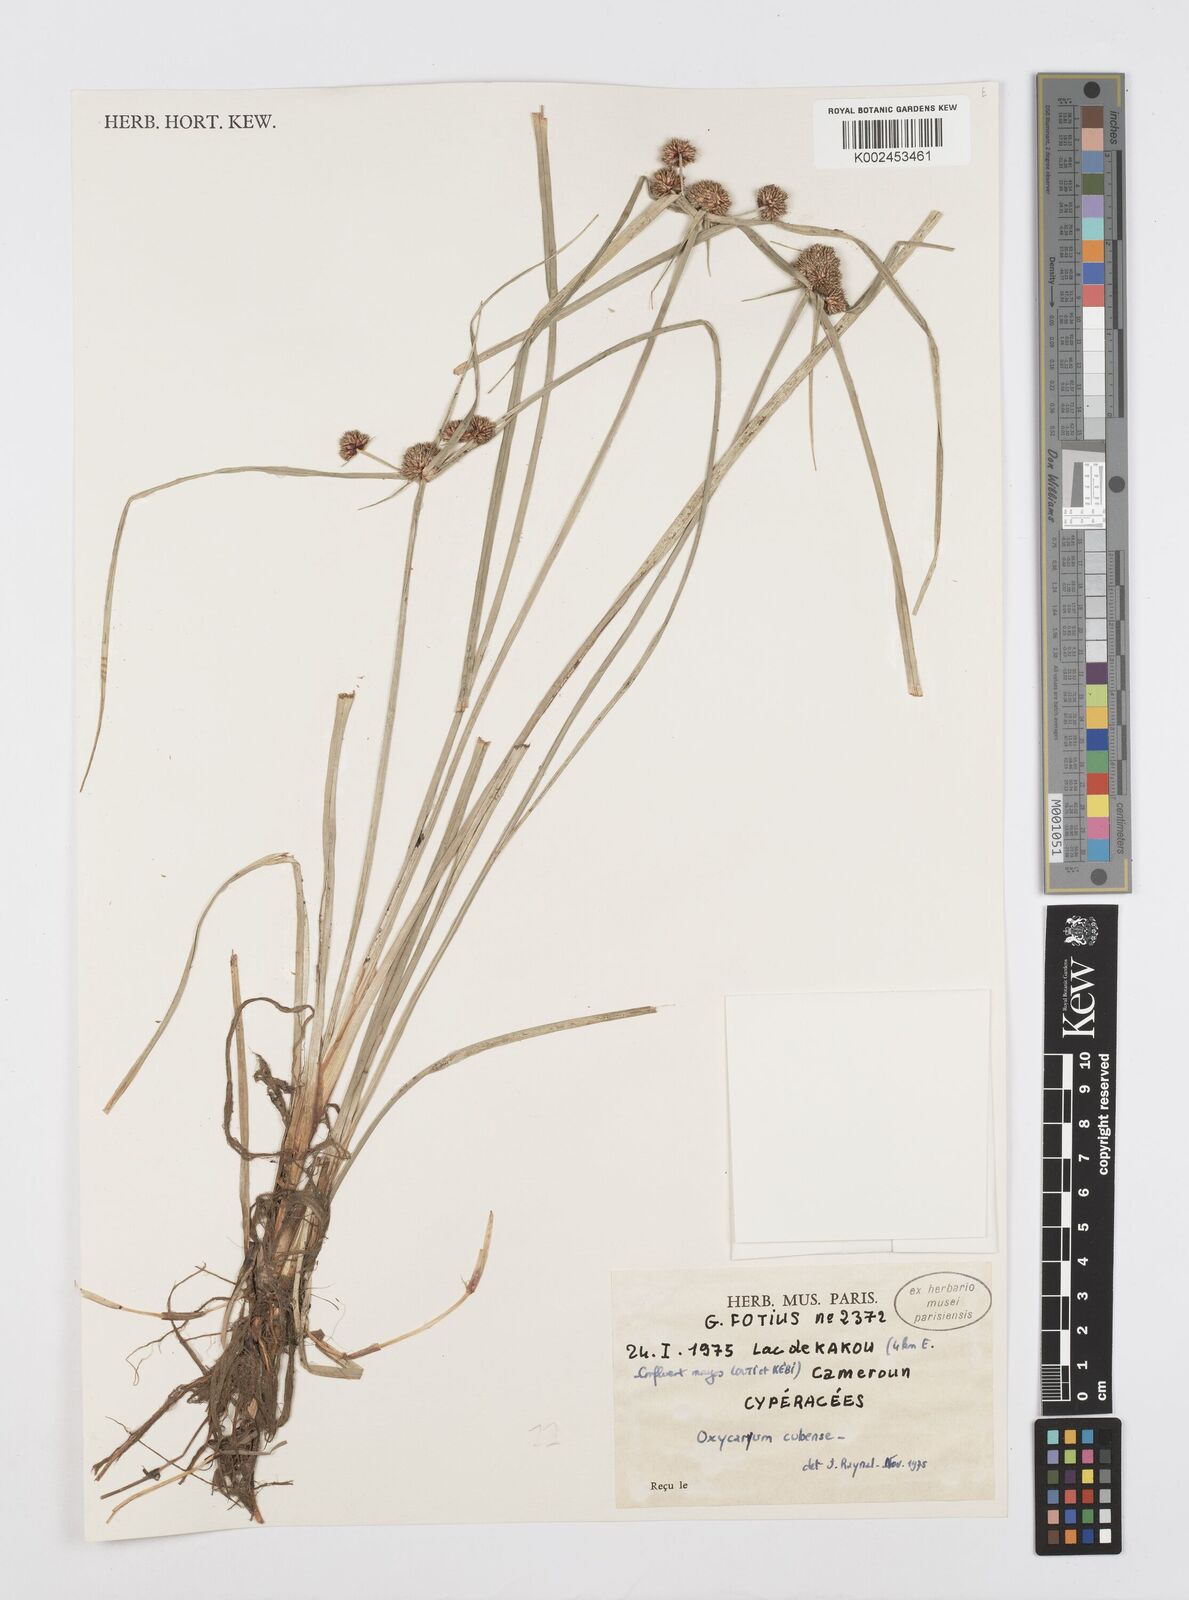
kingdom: Plantae
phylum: Tracheophyta
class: Liliopsida
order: Poales
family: Cyperaceae
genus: Cyperus
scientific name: Cyperus elegans
